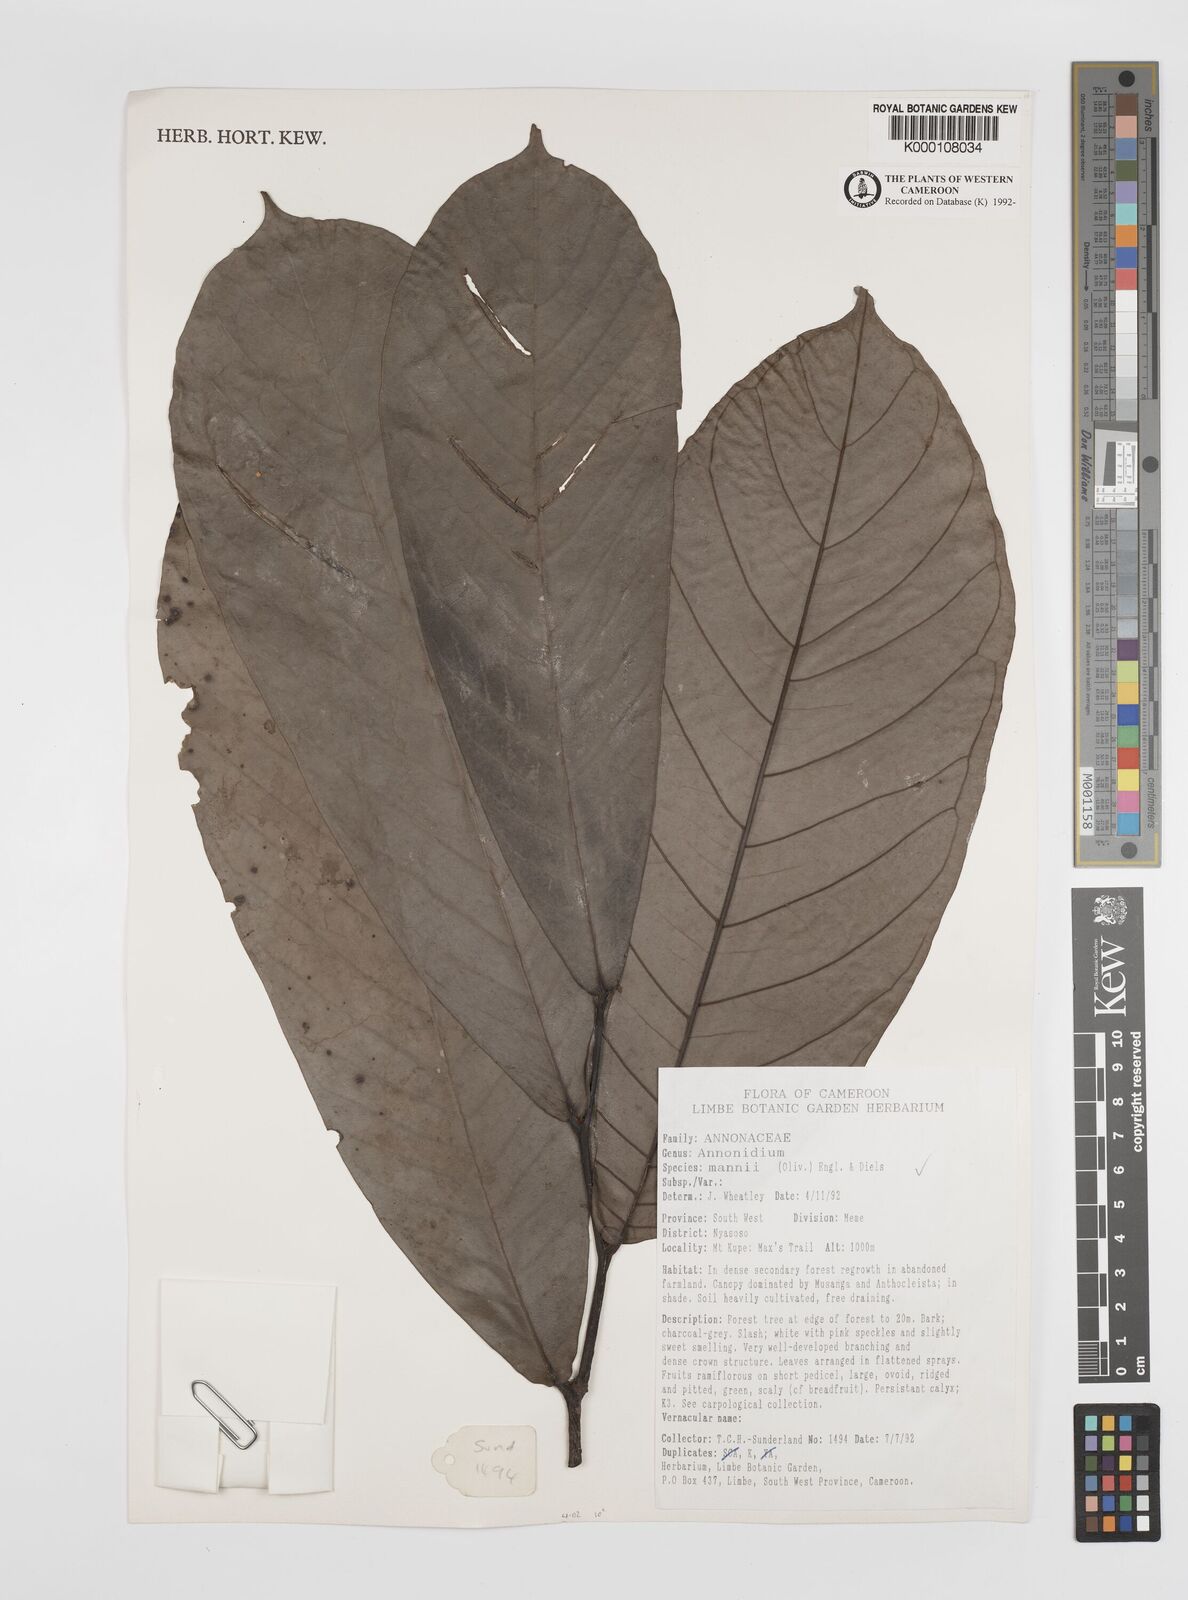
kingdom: Plantae
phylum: Tracheophyta
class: Magnoliopsida
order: Magnoliales
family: Annonaceae
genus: Anonidium
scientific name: Anonidium mannii
